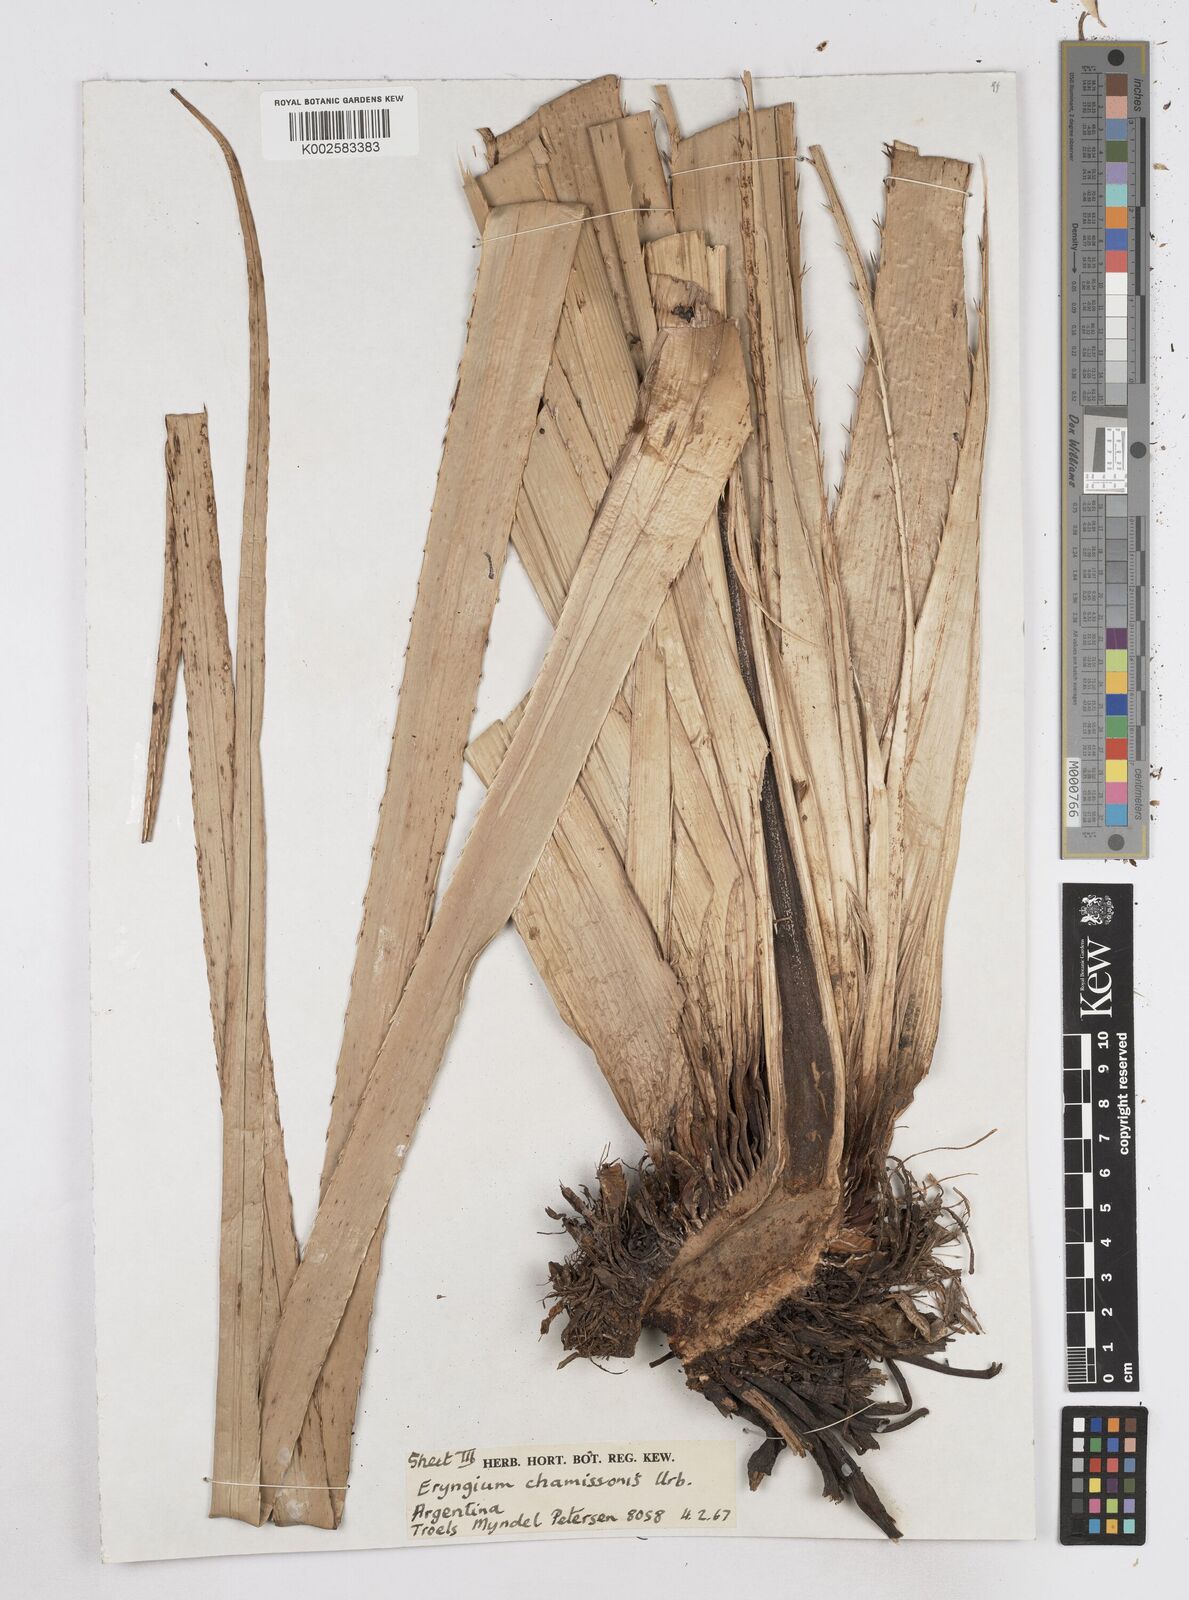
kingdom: Plantae
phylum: Tracheophyta
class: Magnoliopsida
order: Apiales
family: Apiaceae
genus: Eryngium
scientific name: Eryngium chamissonis
